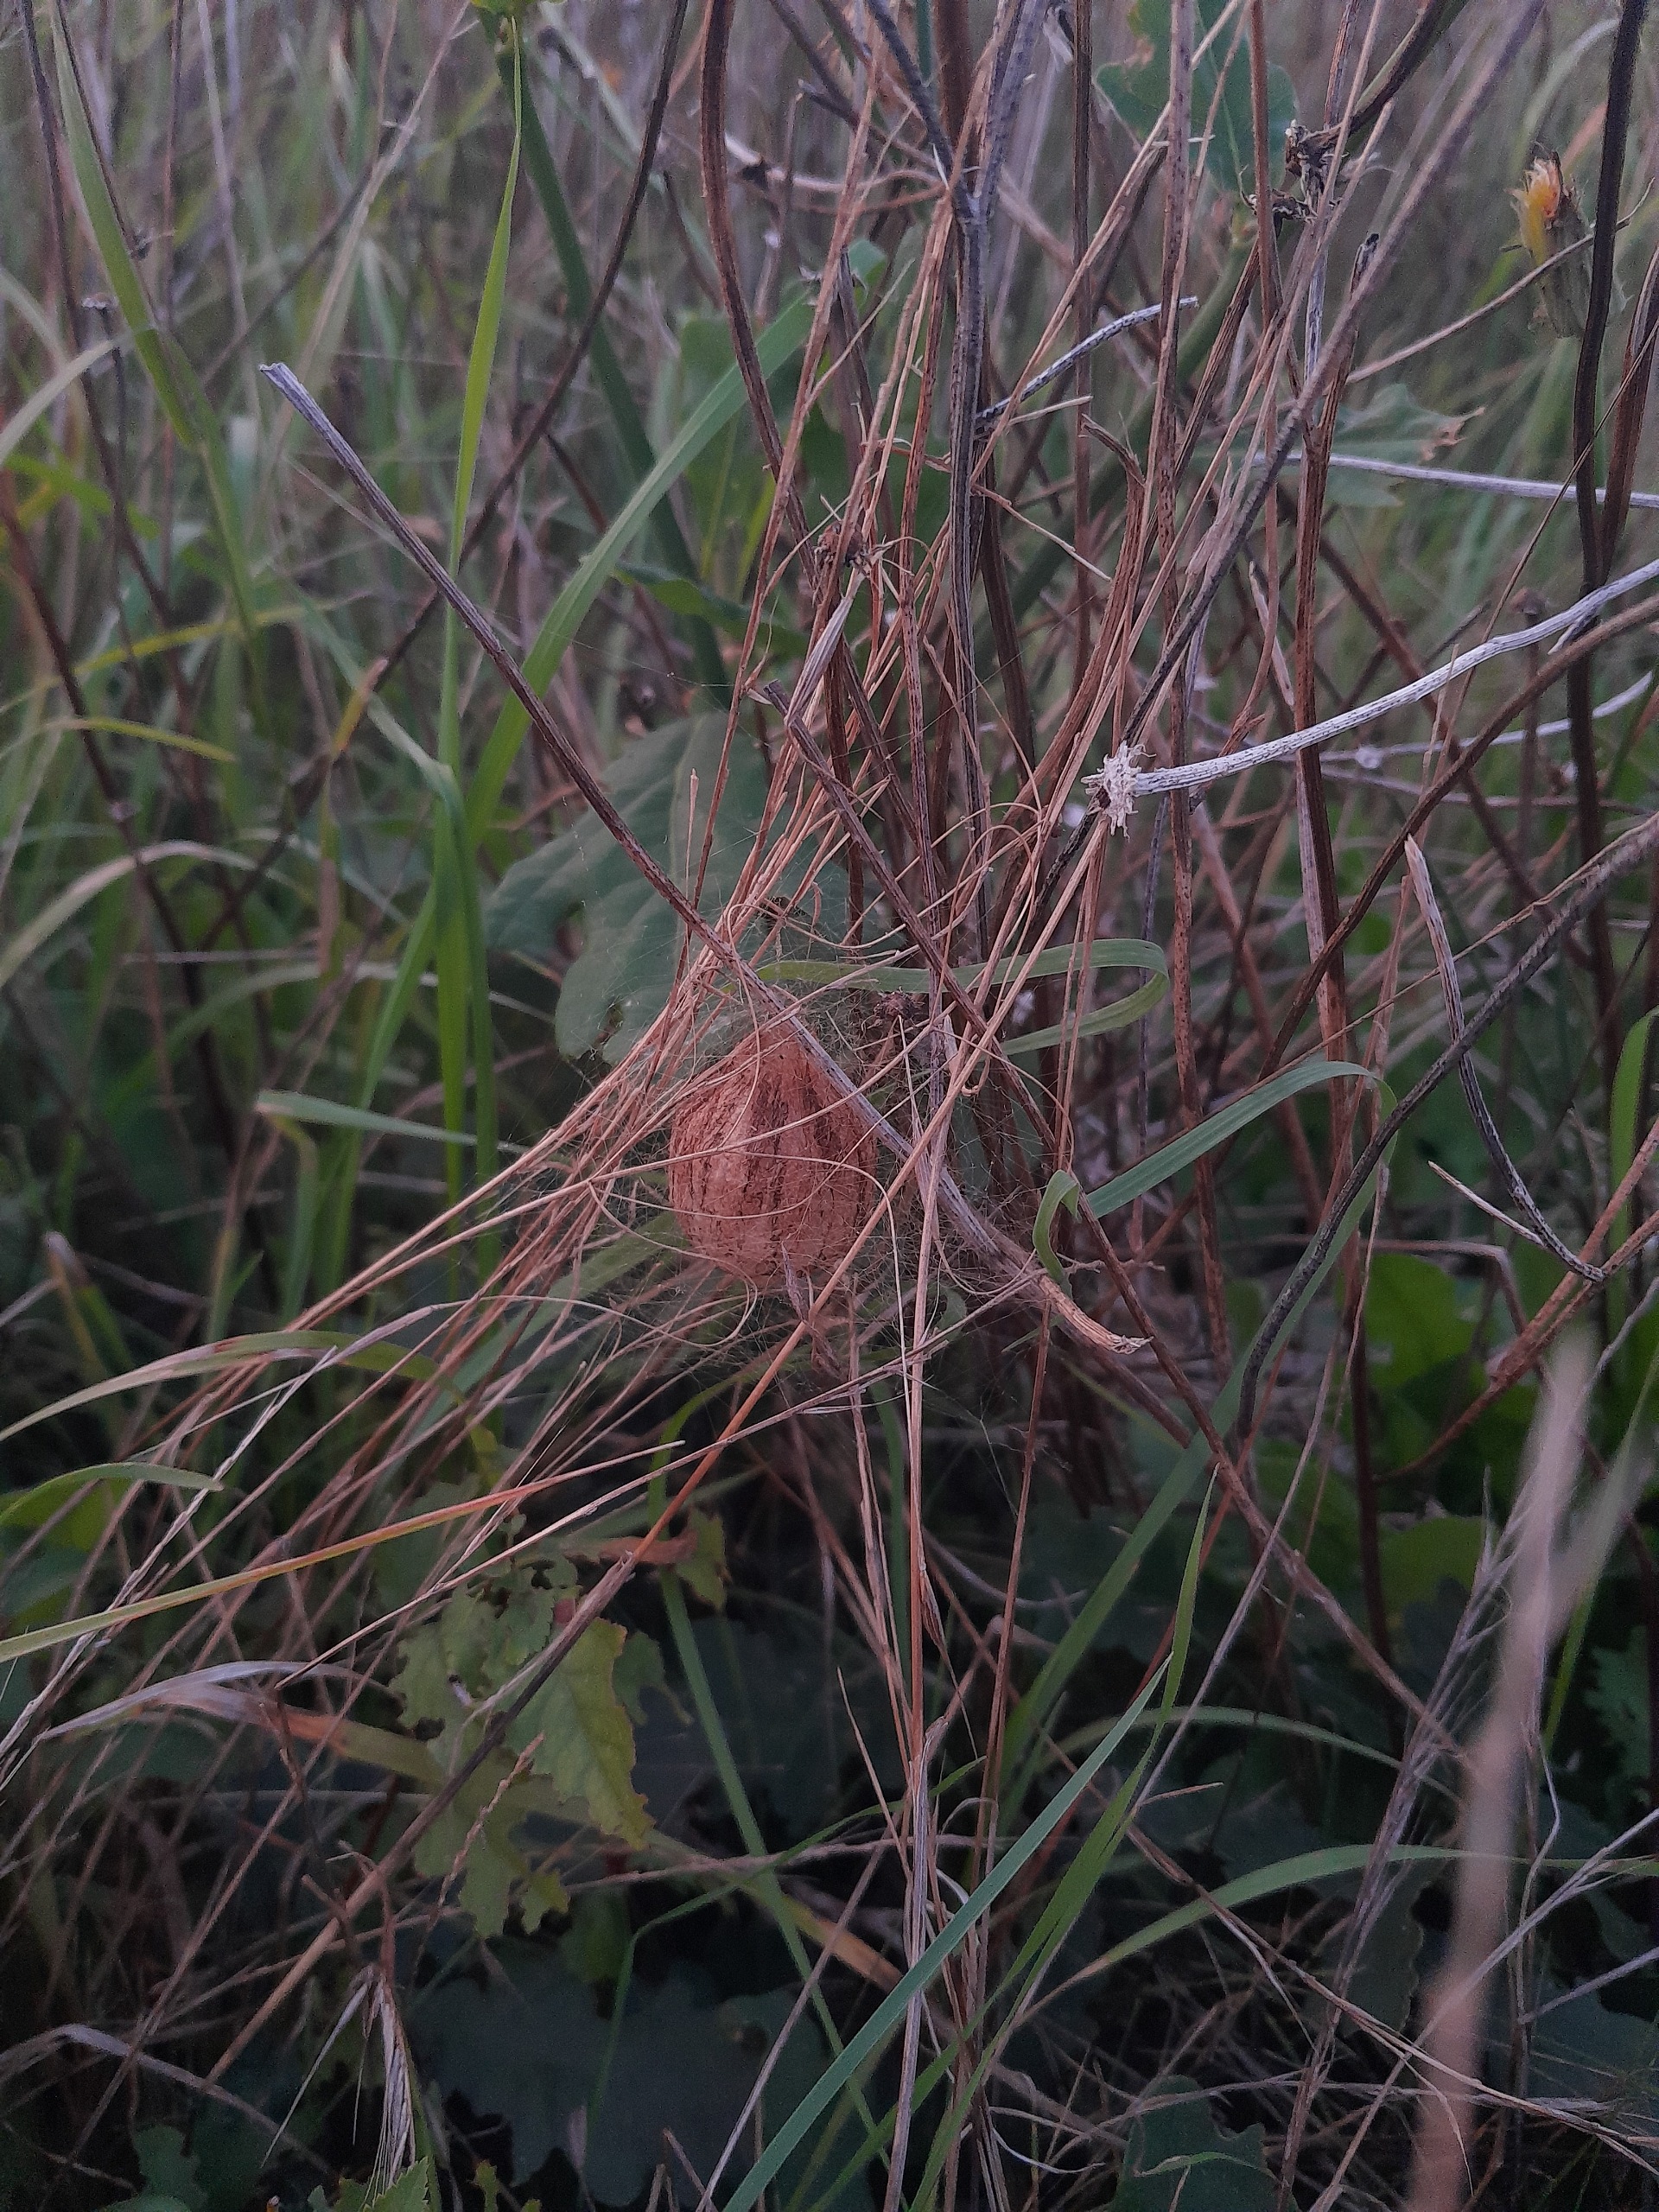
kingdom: Animalia
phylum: Arthropoda
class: Arachnida
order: Araneae
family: Araneidae
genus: Argiope
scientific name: Argiope bruennichi
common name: Hvepseedderkop
